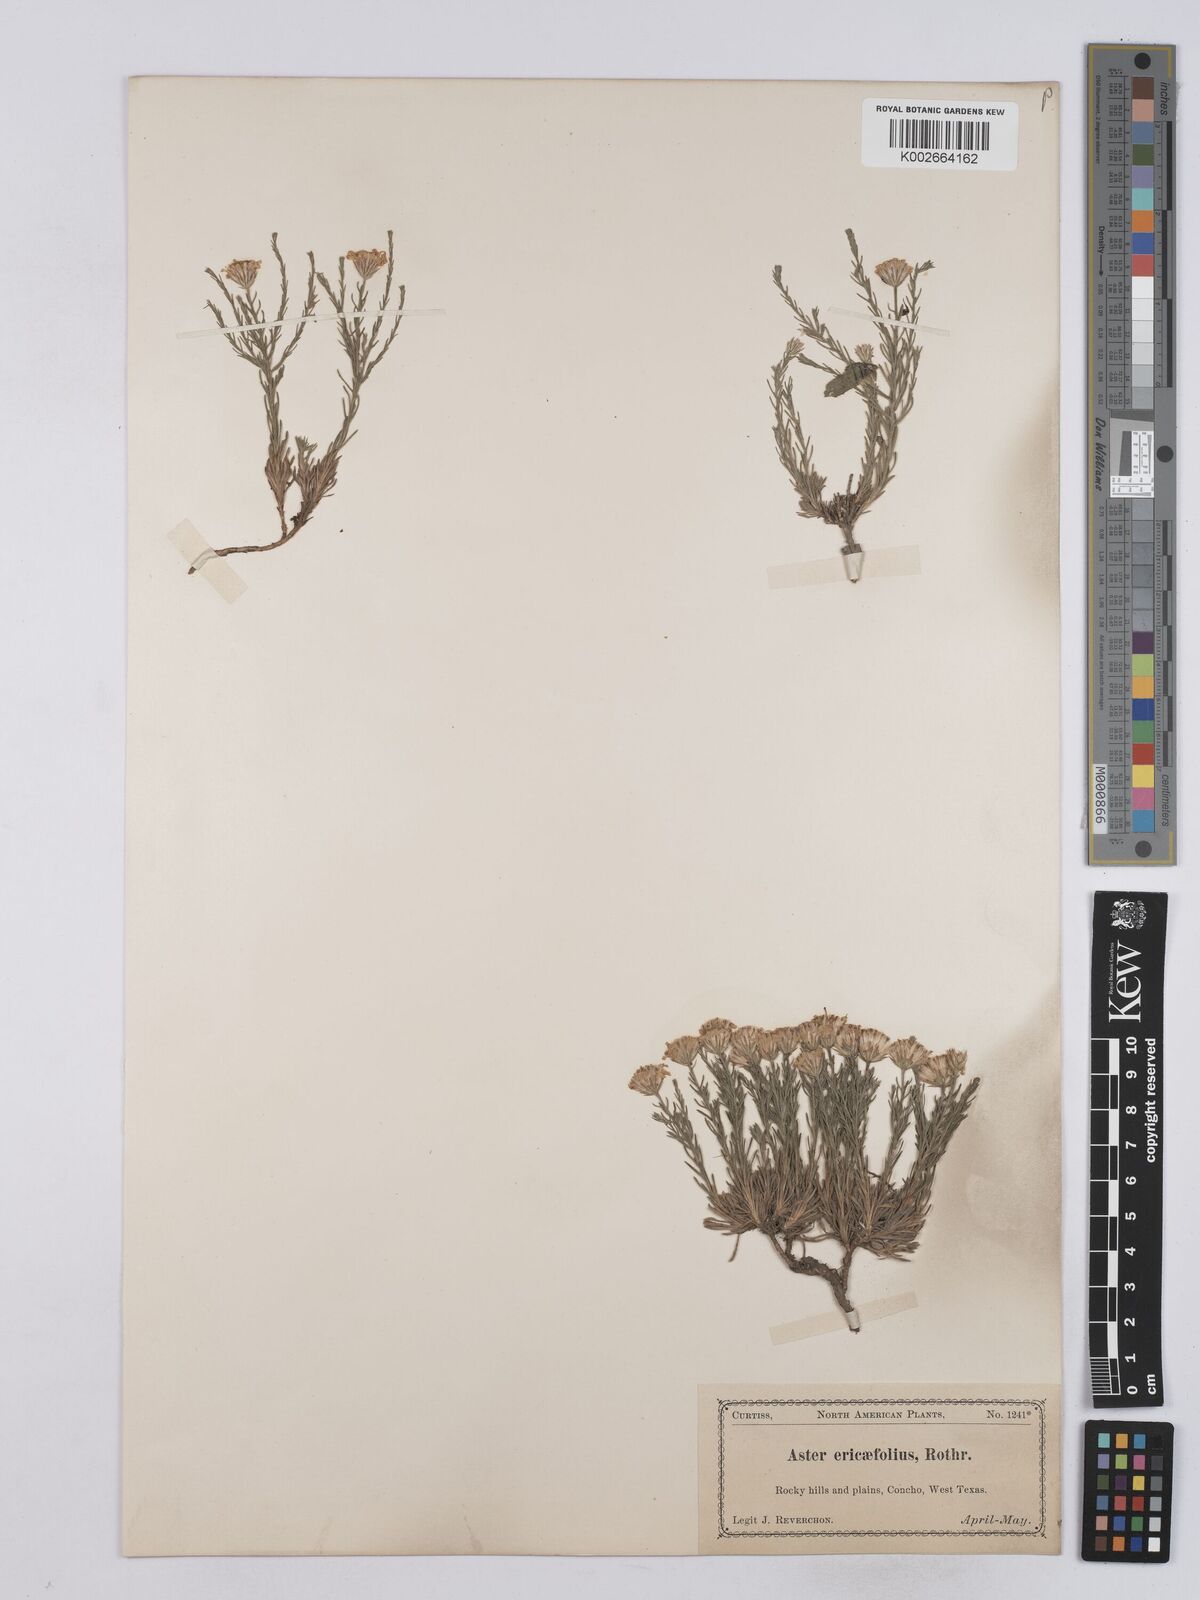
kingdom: Plantae
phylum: Tracheophyta
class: Magnoliopsida
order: Asterales
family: Asteraceae
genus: Chaetopappa
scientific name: Chaetopappa ericoides
